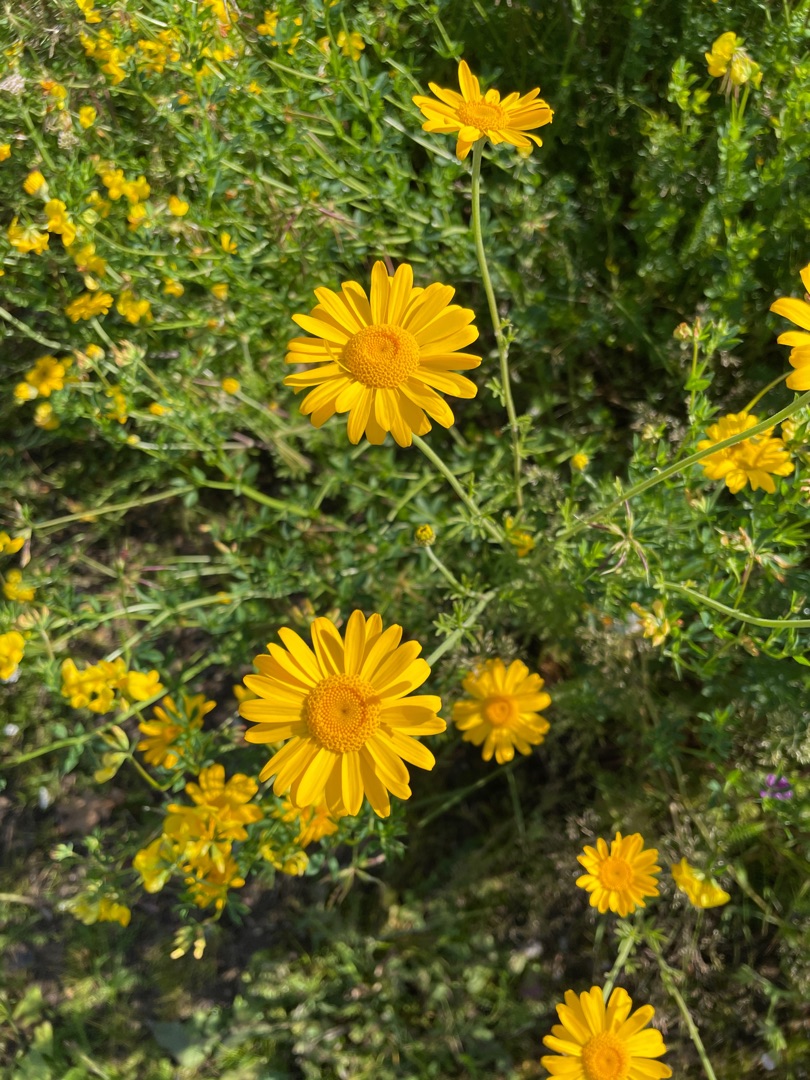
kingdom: Plantae
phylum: Tracheophyta
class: Magnoliopsida
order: Asterales
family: Asteraceae
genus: Cota
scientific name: Cota tinctoria
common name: Farve-gåseurt
